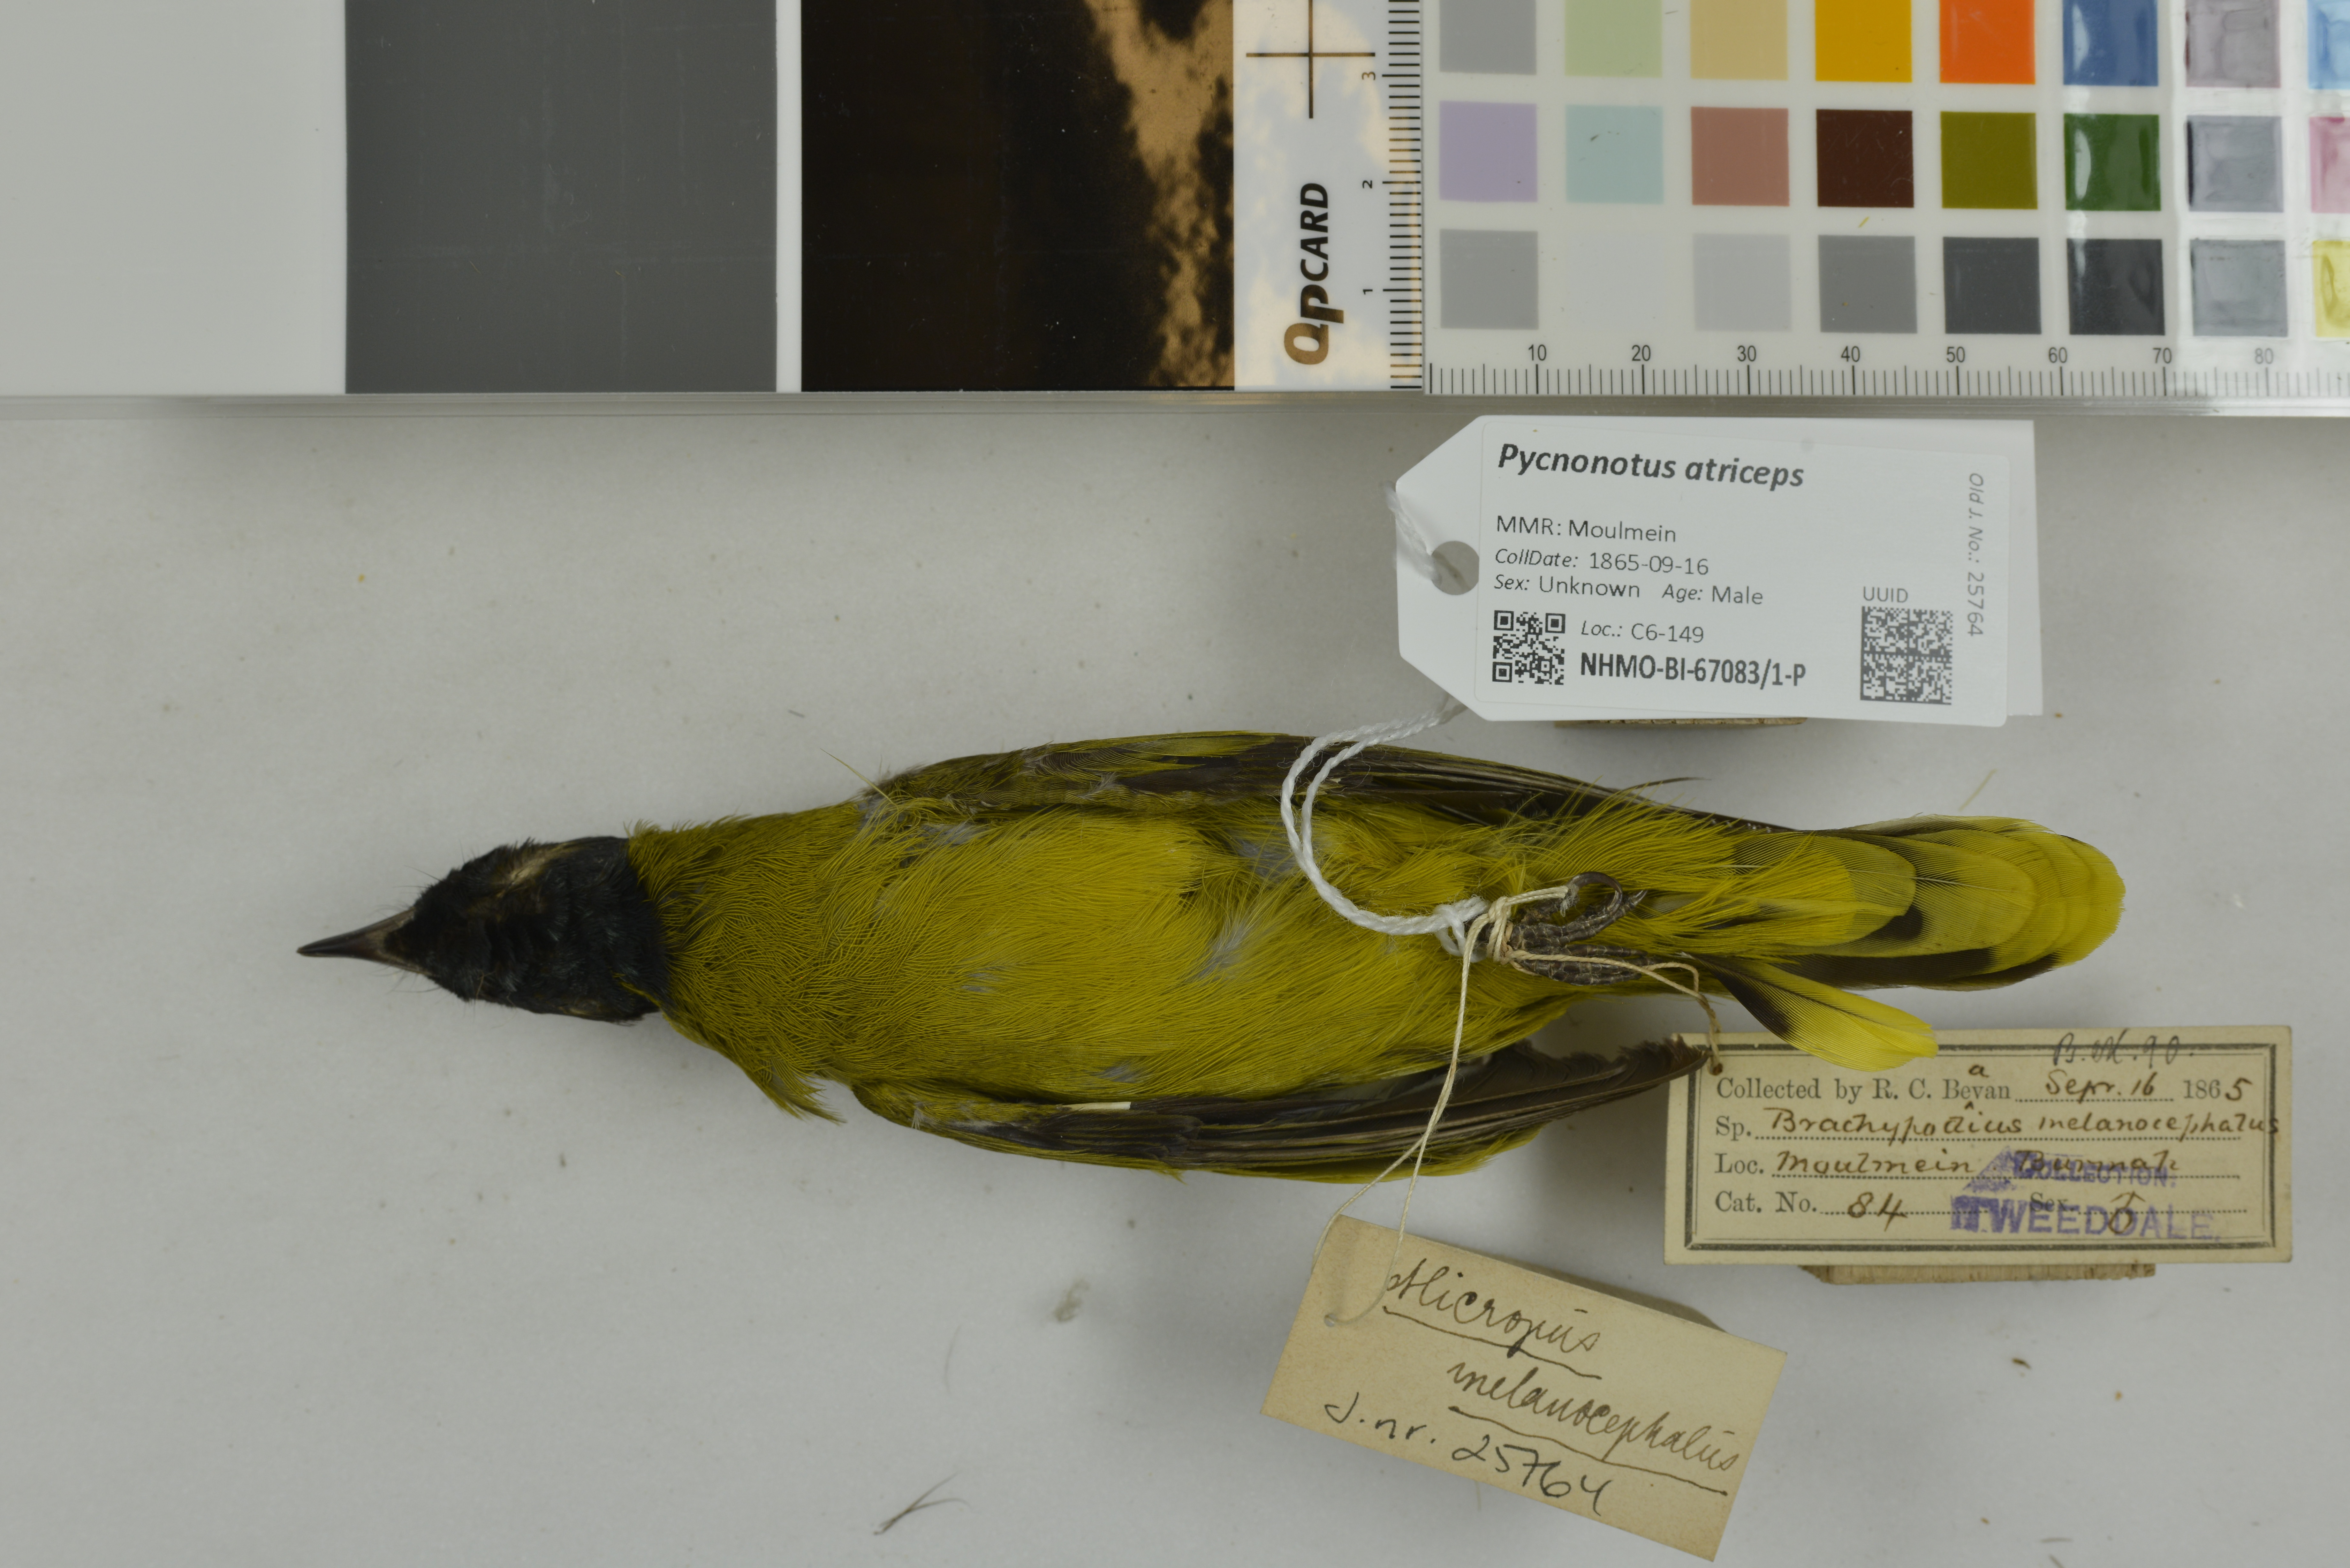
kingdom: Animalia
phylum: Chordata
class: Aves
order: Passeriformes
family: Pycnonotidae
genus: Brachypodius
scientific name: Brachypodius melanocephalos
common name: Black-headed bulbul
